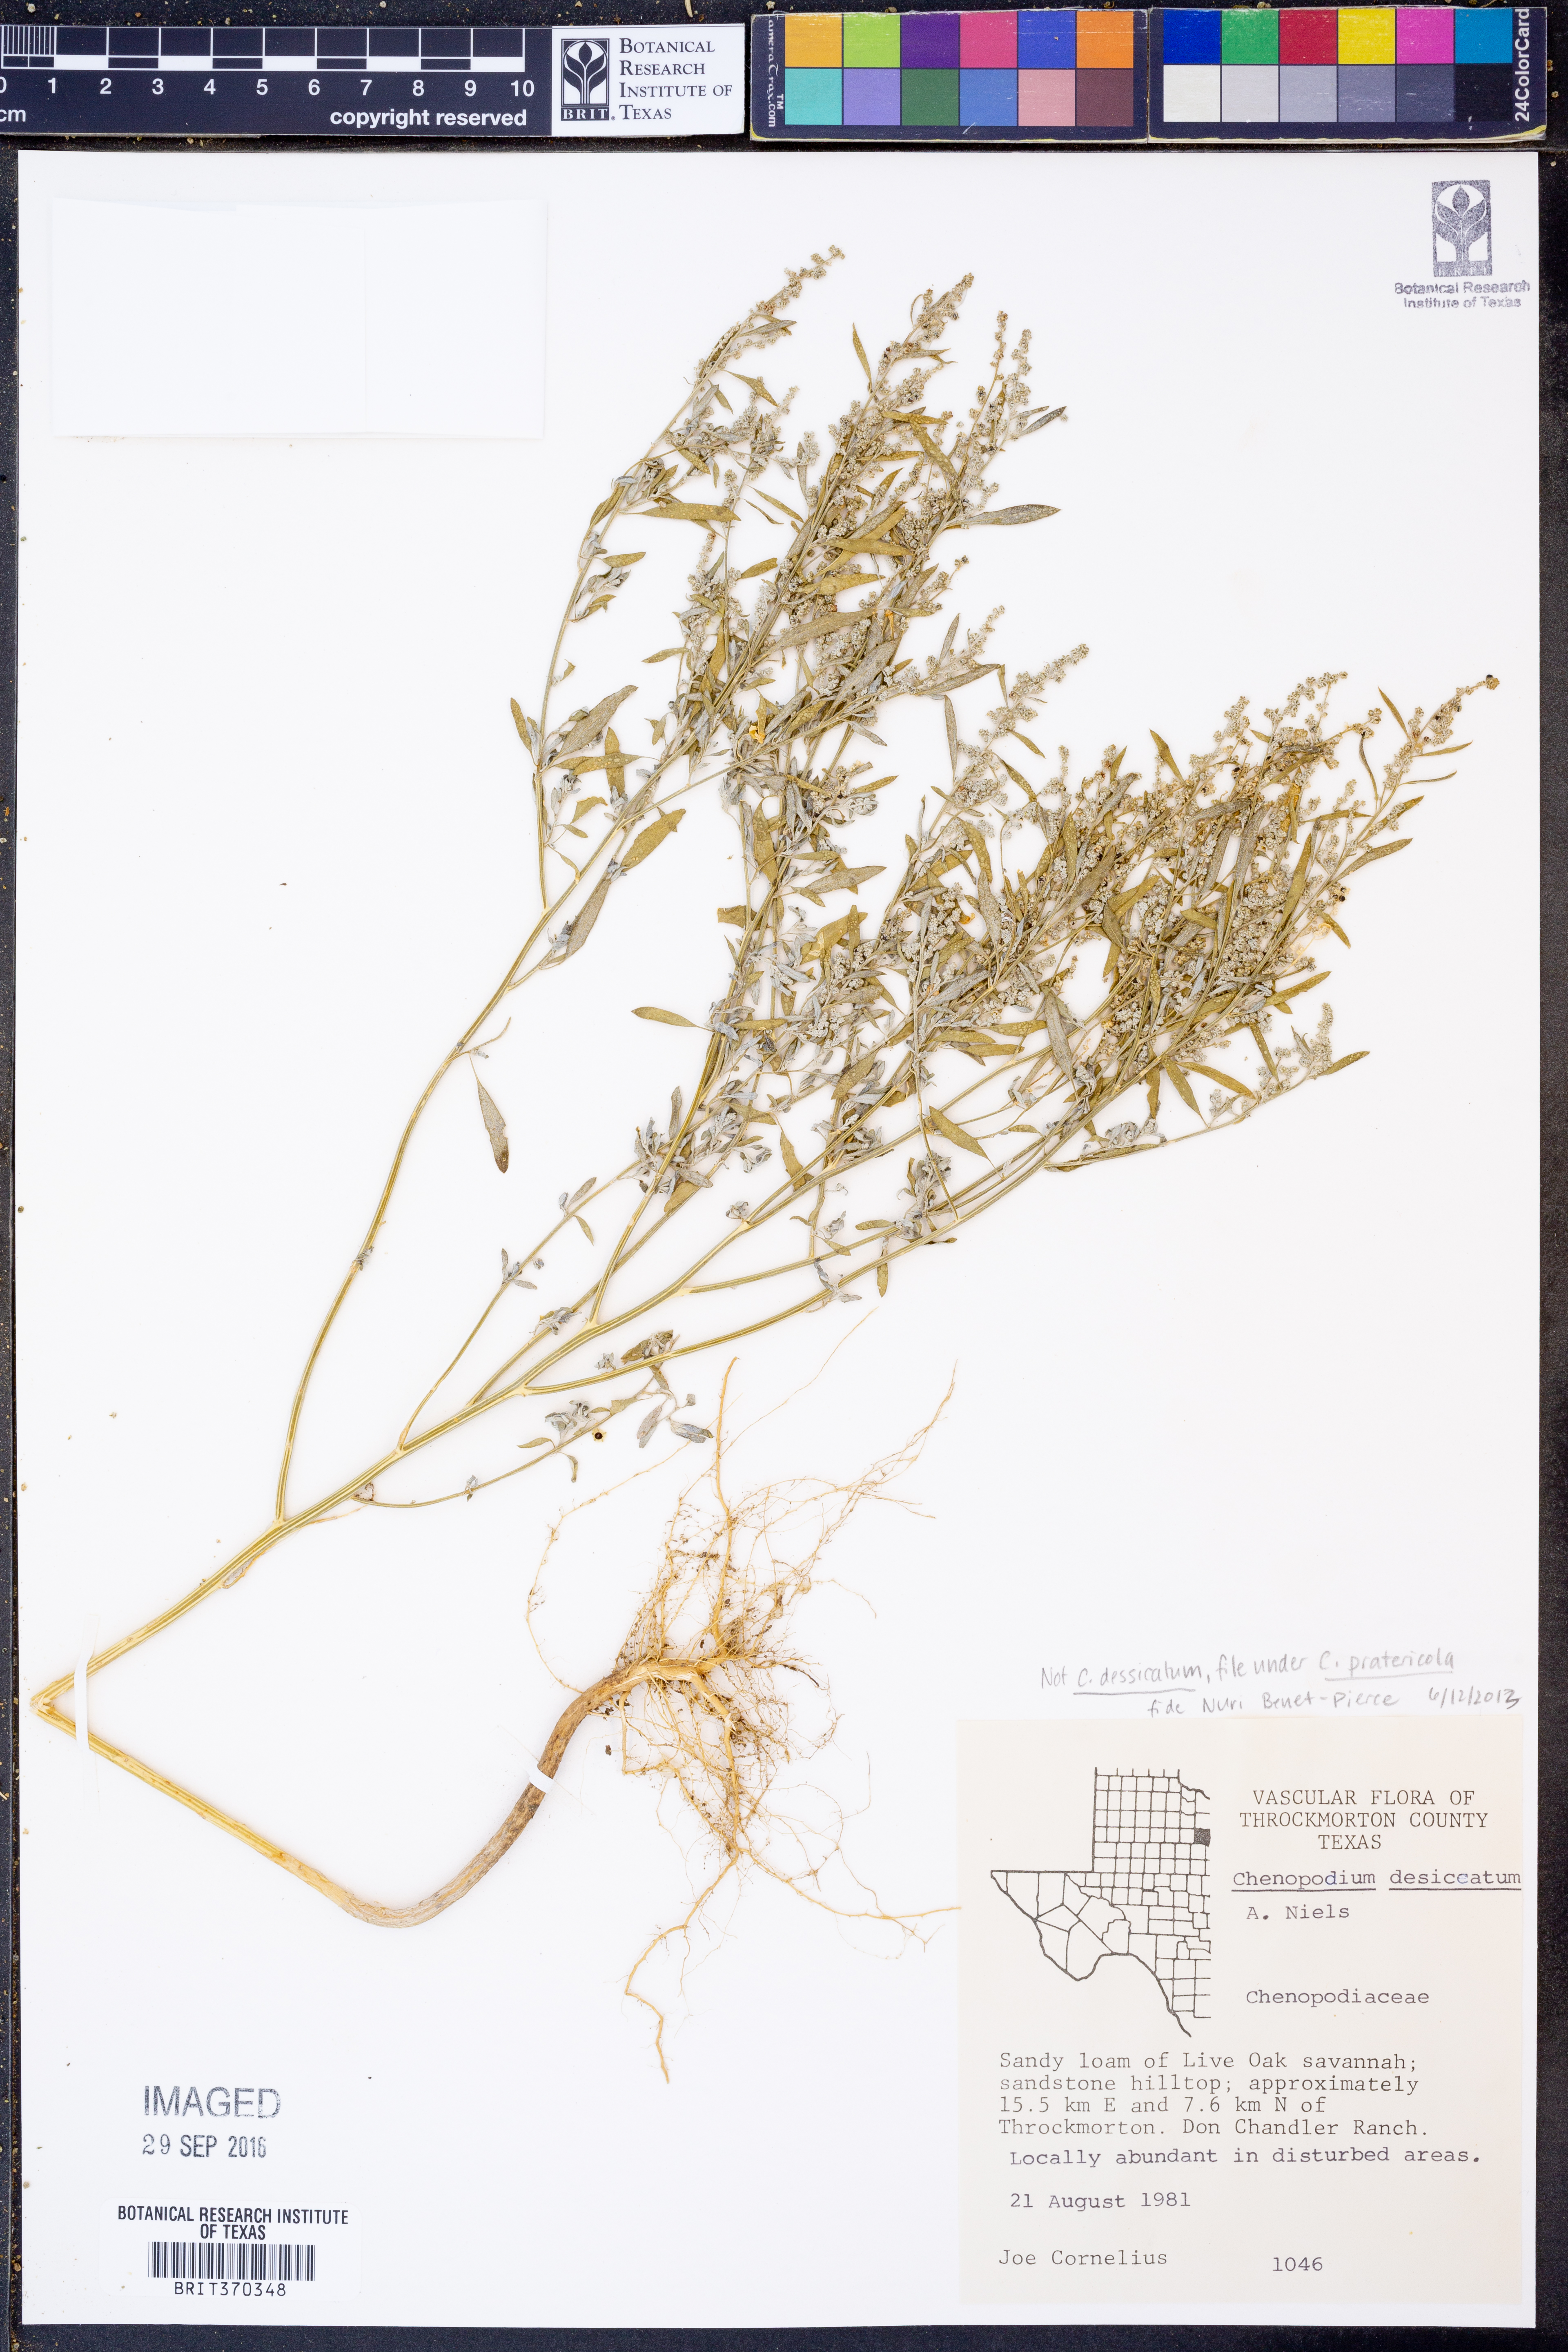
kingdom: Plantae
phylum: Tracheophyta
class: Magnoliopsida
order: Caryophyllales
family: Amaranthaceae
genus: Chenopodium
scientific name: Chenopodium pratericola
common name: Desert goosefoot
